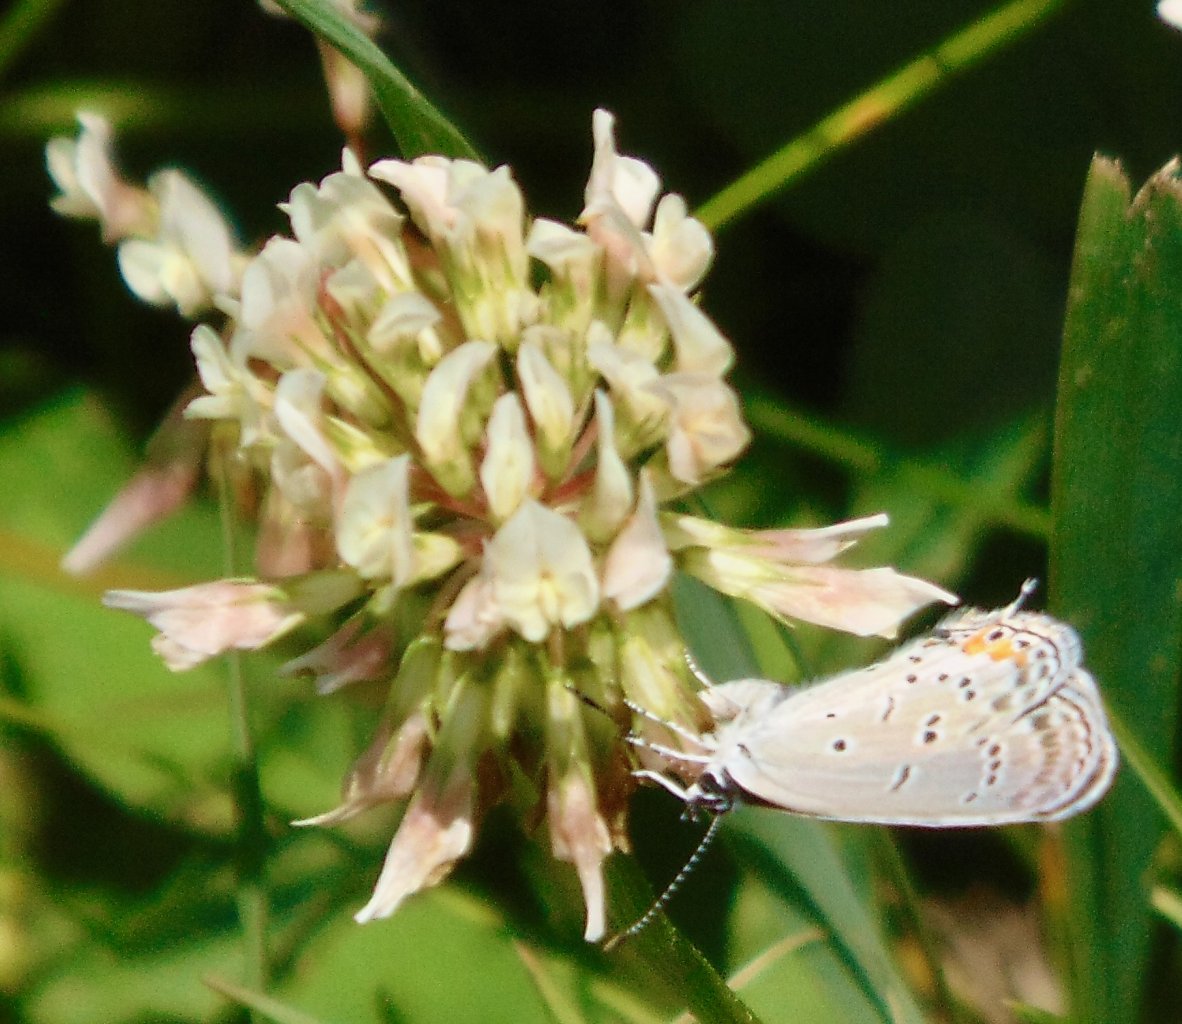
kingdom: Animalia
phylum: Arthropoda
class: Insecta
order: Lepidoptera
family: Lycaenidae
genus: Elkalyce
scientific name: Elkalyce comyntas
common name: Eastern Tailed-Blue
